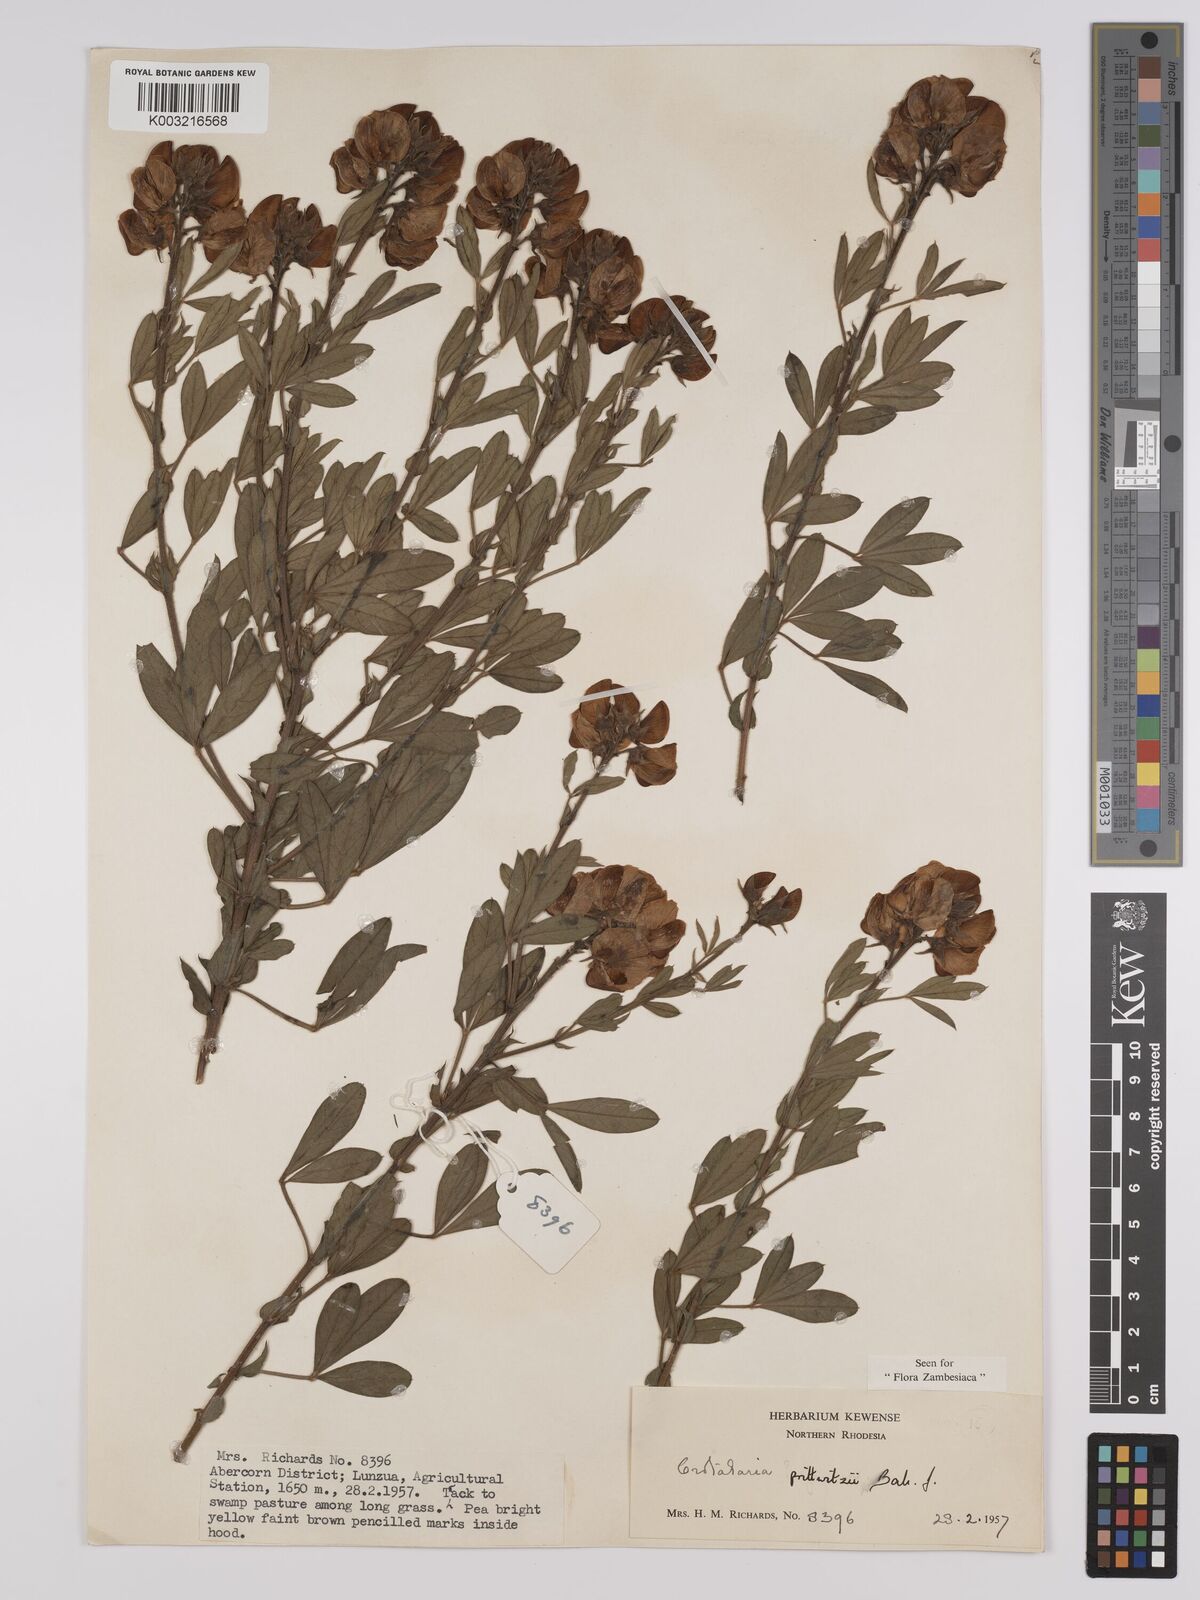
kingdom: Plantae
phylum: Tracheophyta
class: Magnoliopsida
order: Fabales
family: Fabaceae
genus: Crotalaria
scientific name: Crotalaria prittwitzii
